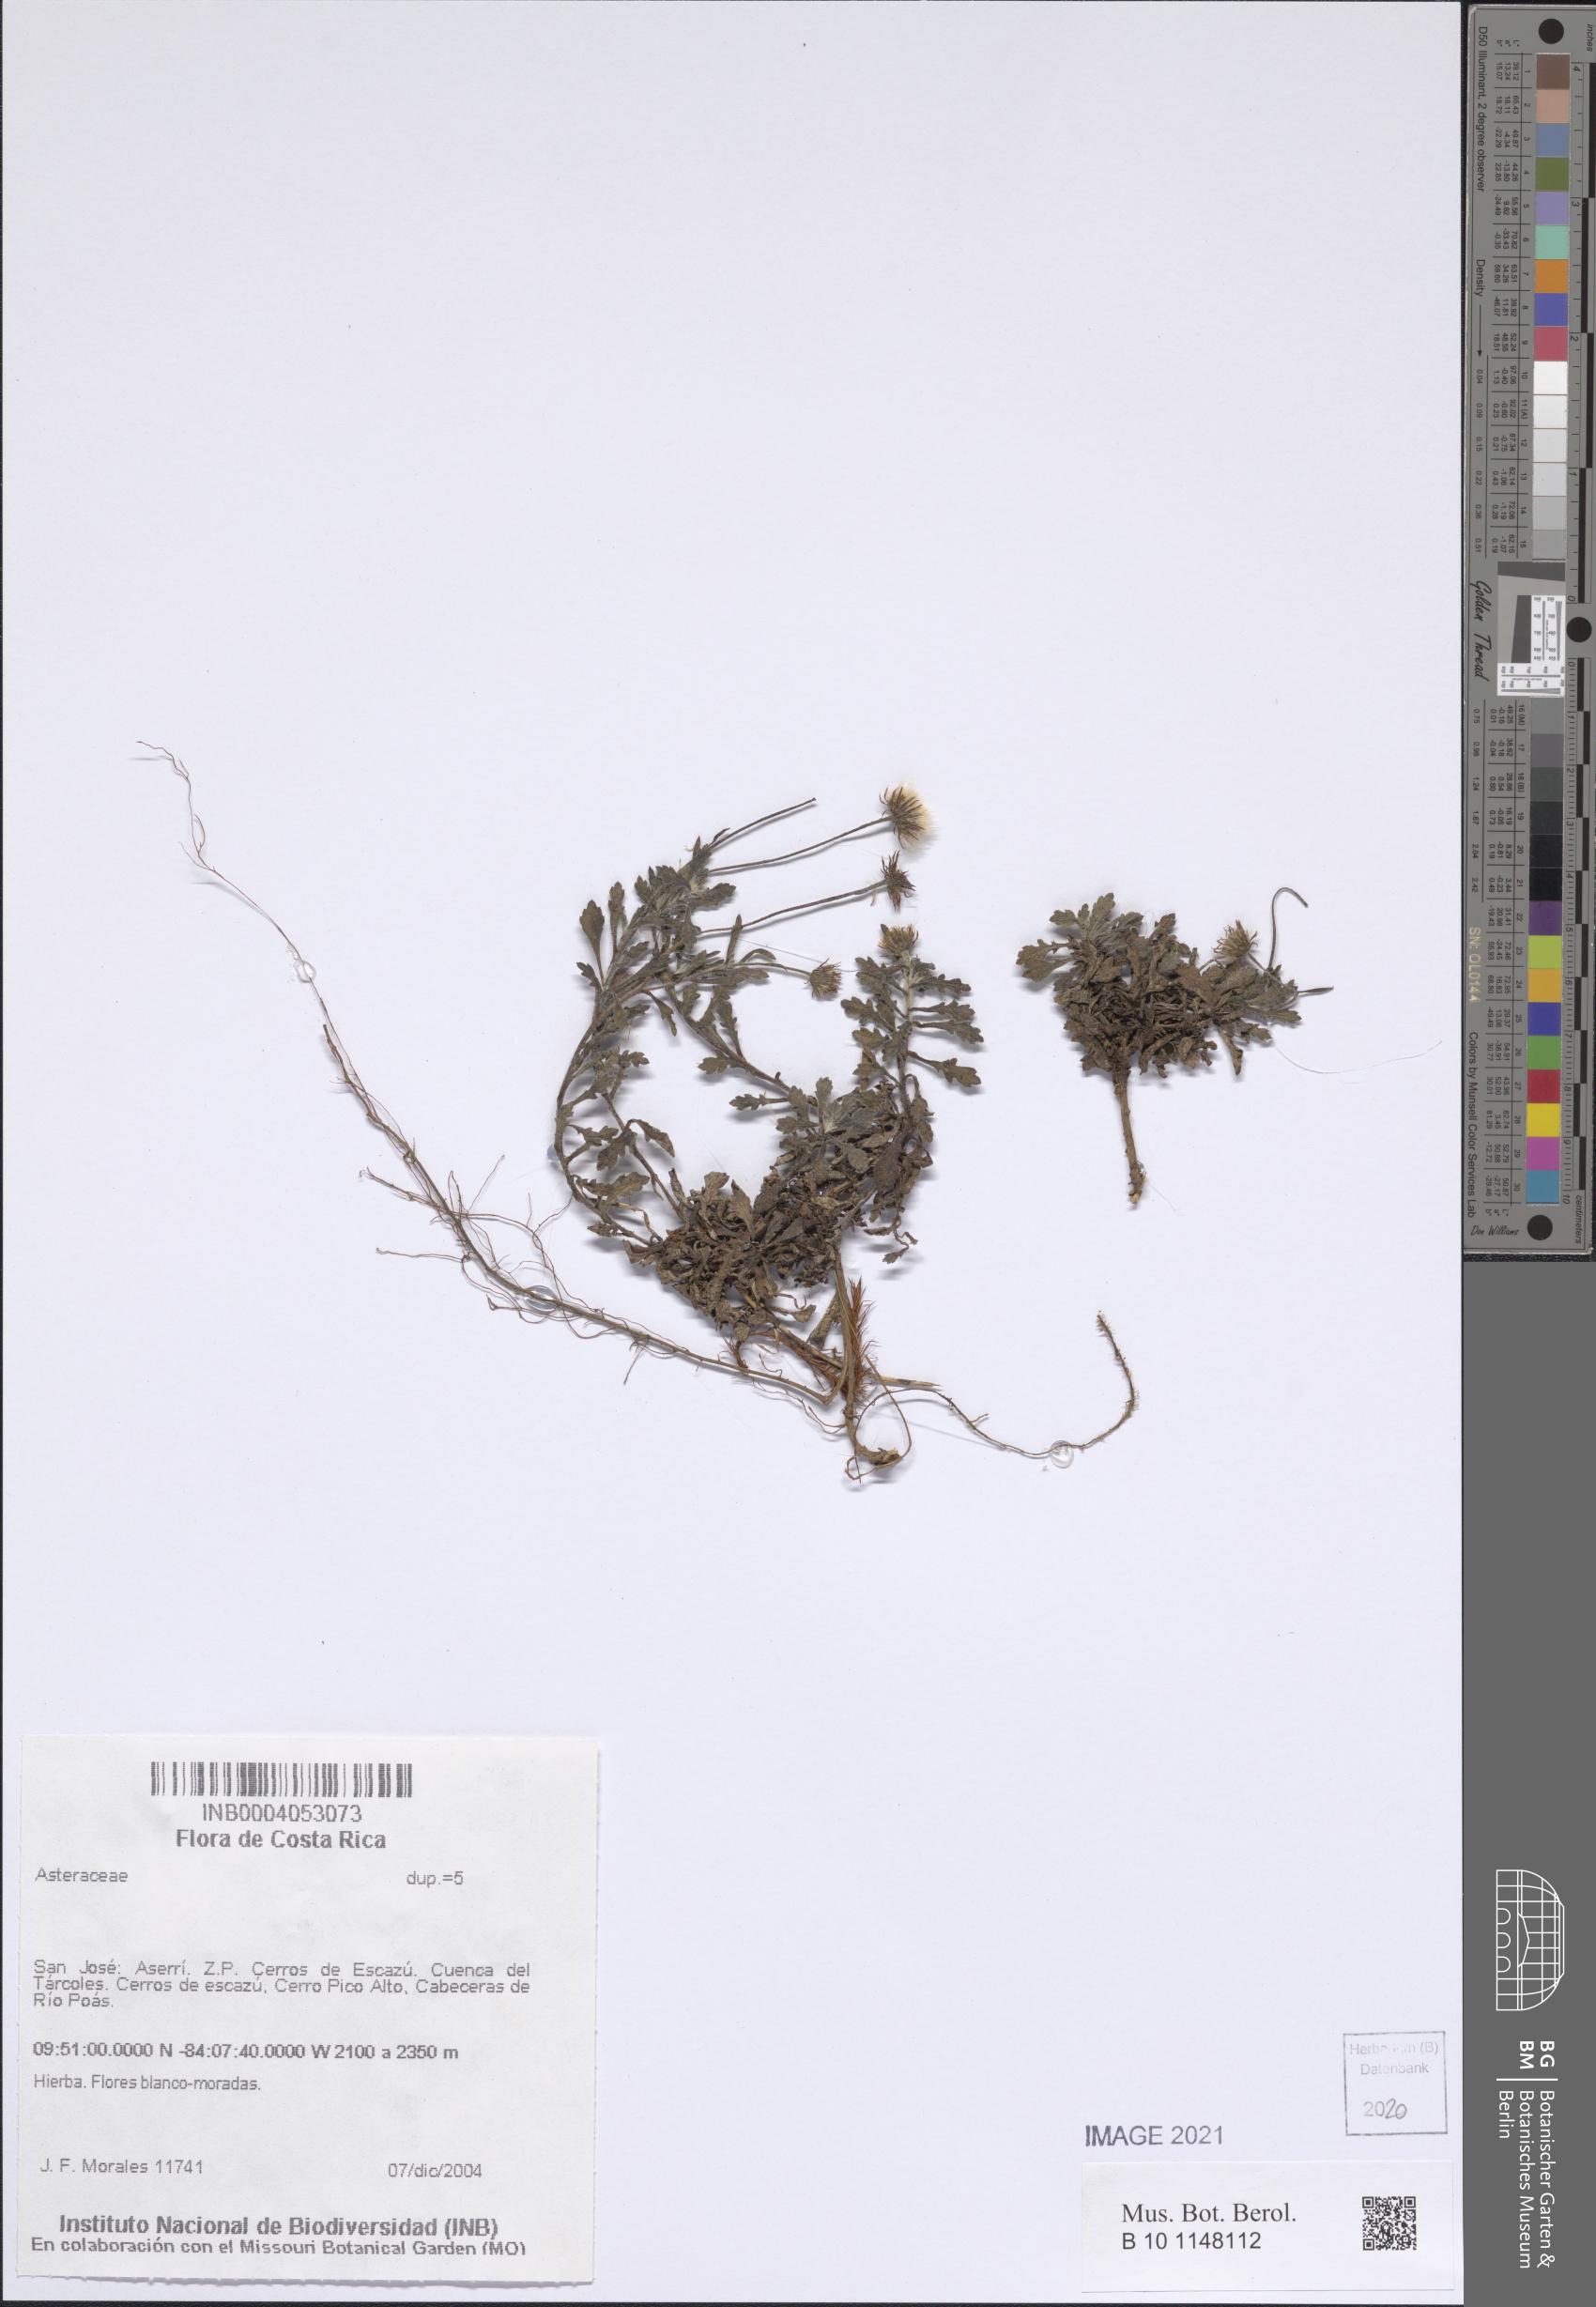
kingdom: Plantae
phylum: Tracheophyta
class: Magnoliopsida
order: Asterales
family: Asteraceae
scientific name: Asteraceae
